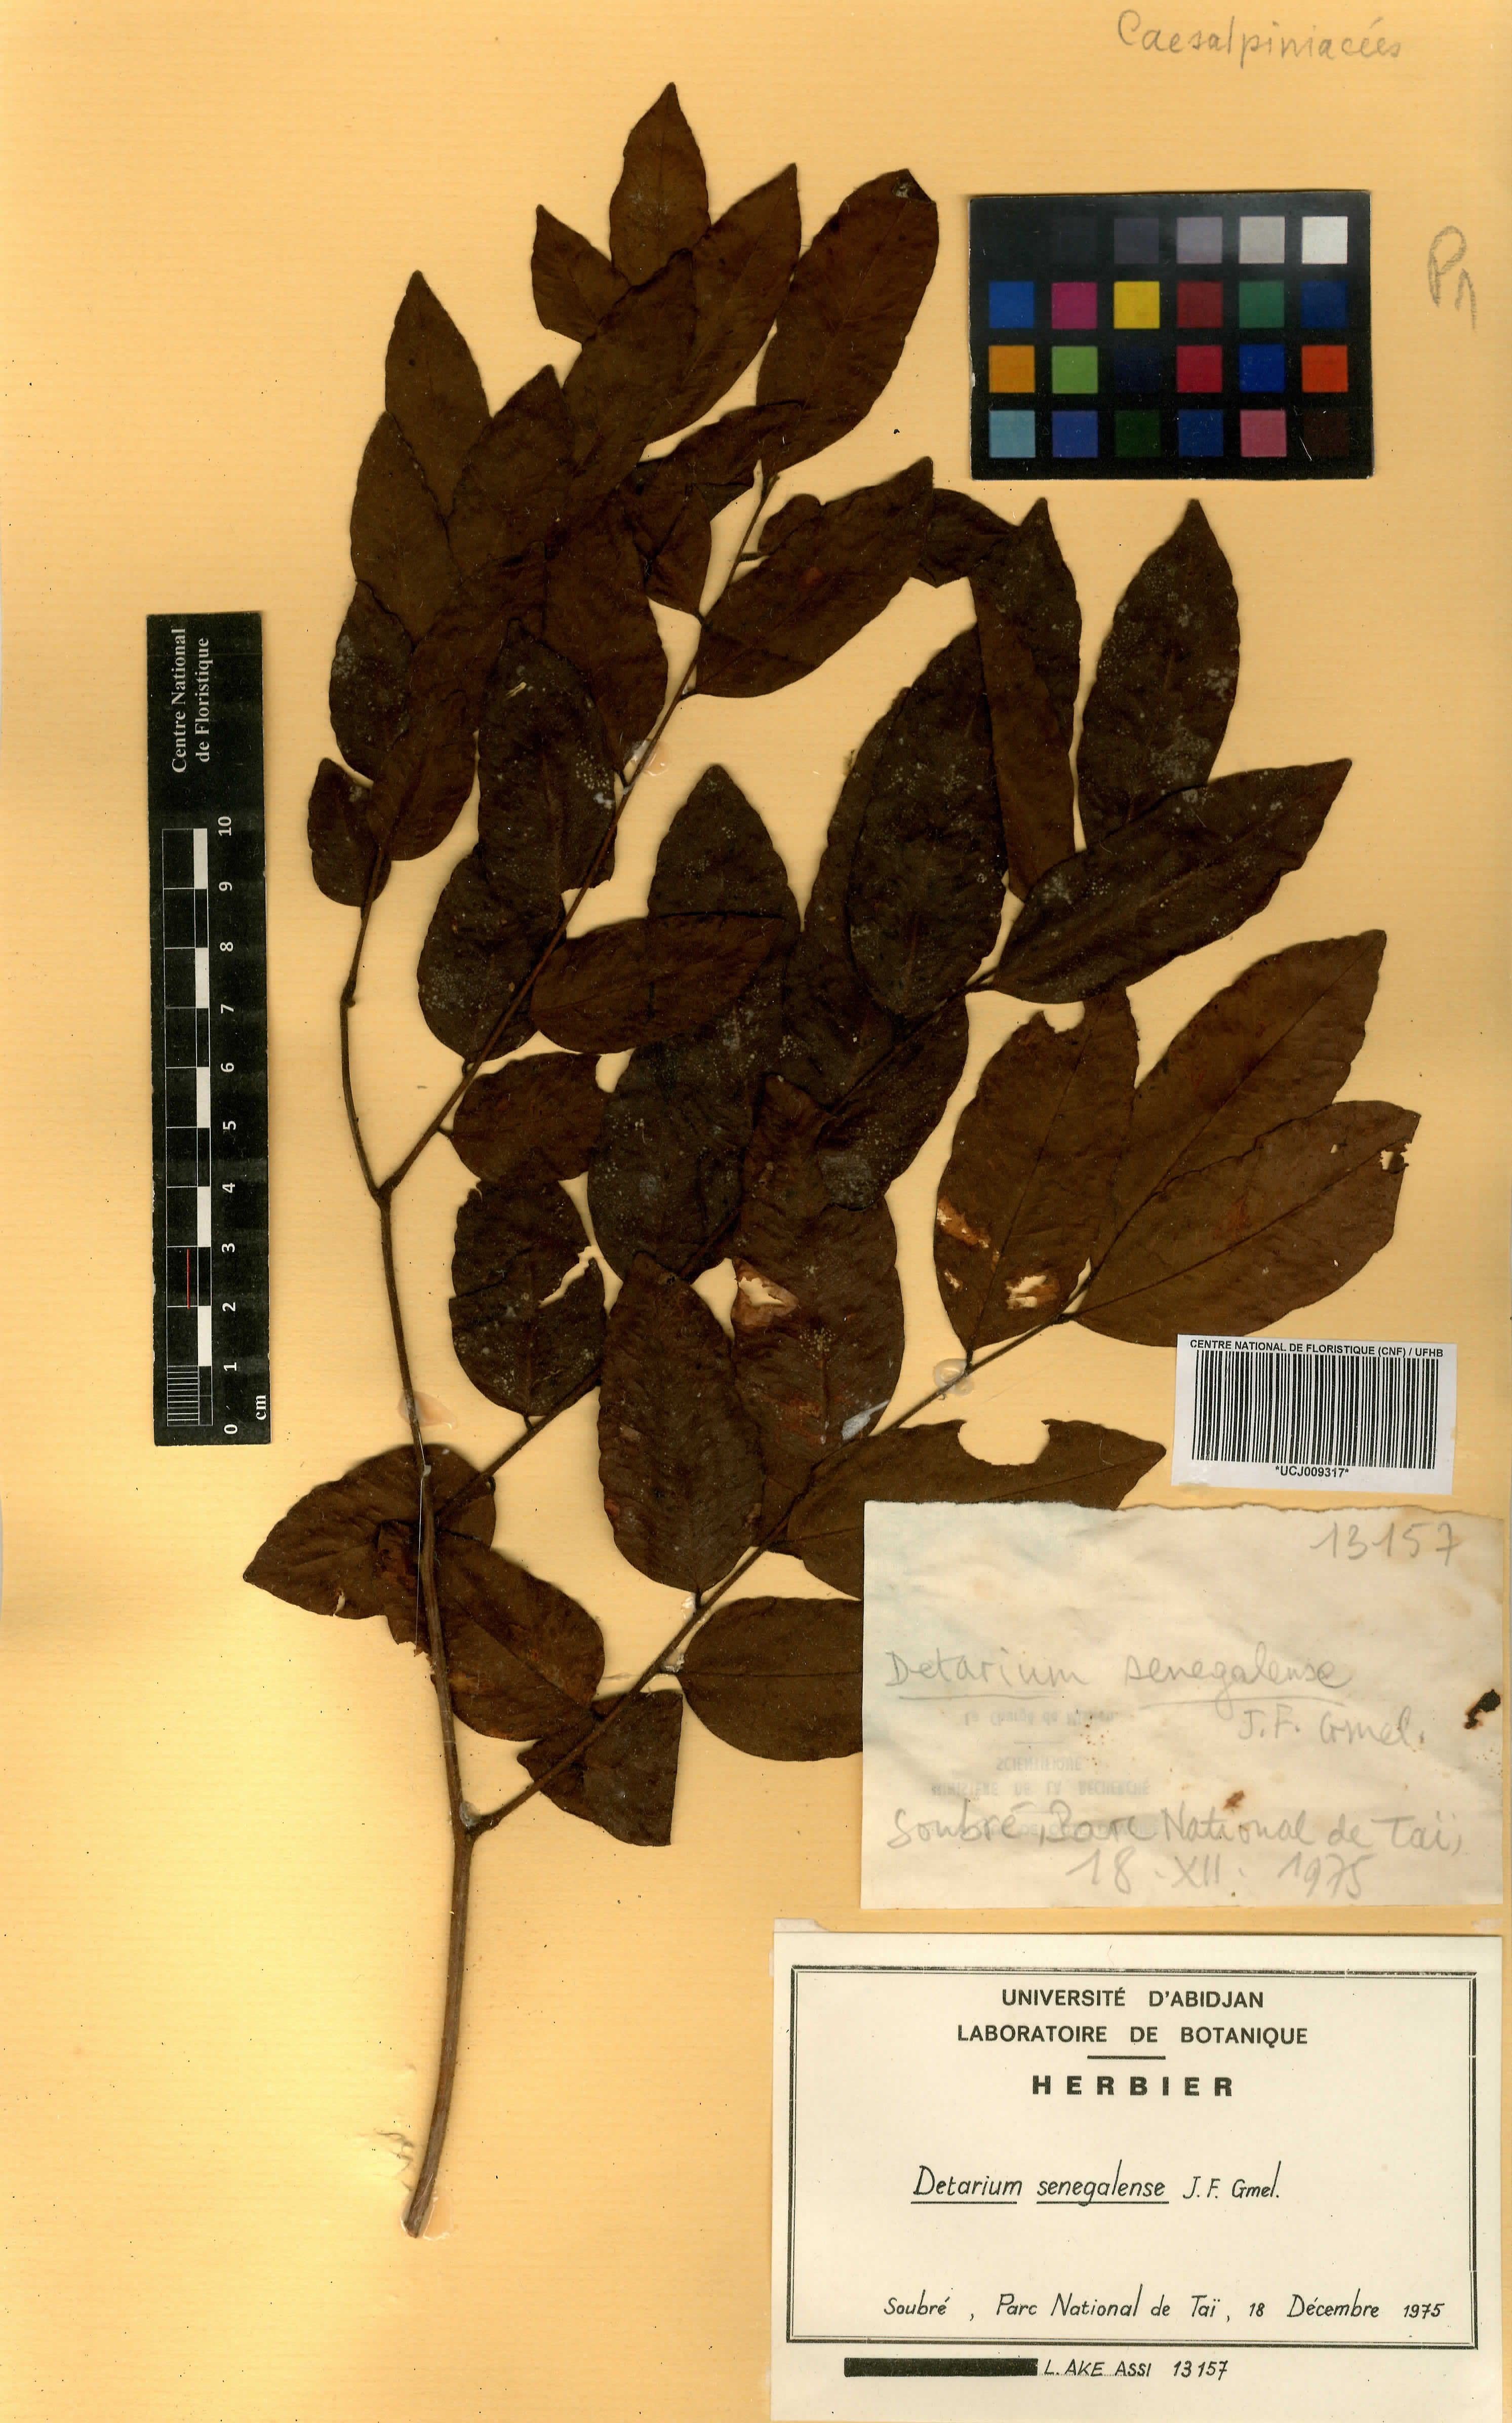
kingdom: Plantae
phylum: Tracheophyta
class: Magnoliopsida
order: Fabales
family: Fabaceae
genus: Detarium
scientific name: Detarium senegalense
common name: Dattocktree
